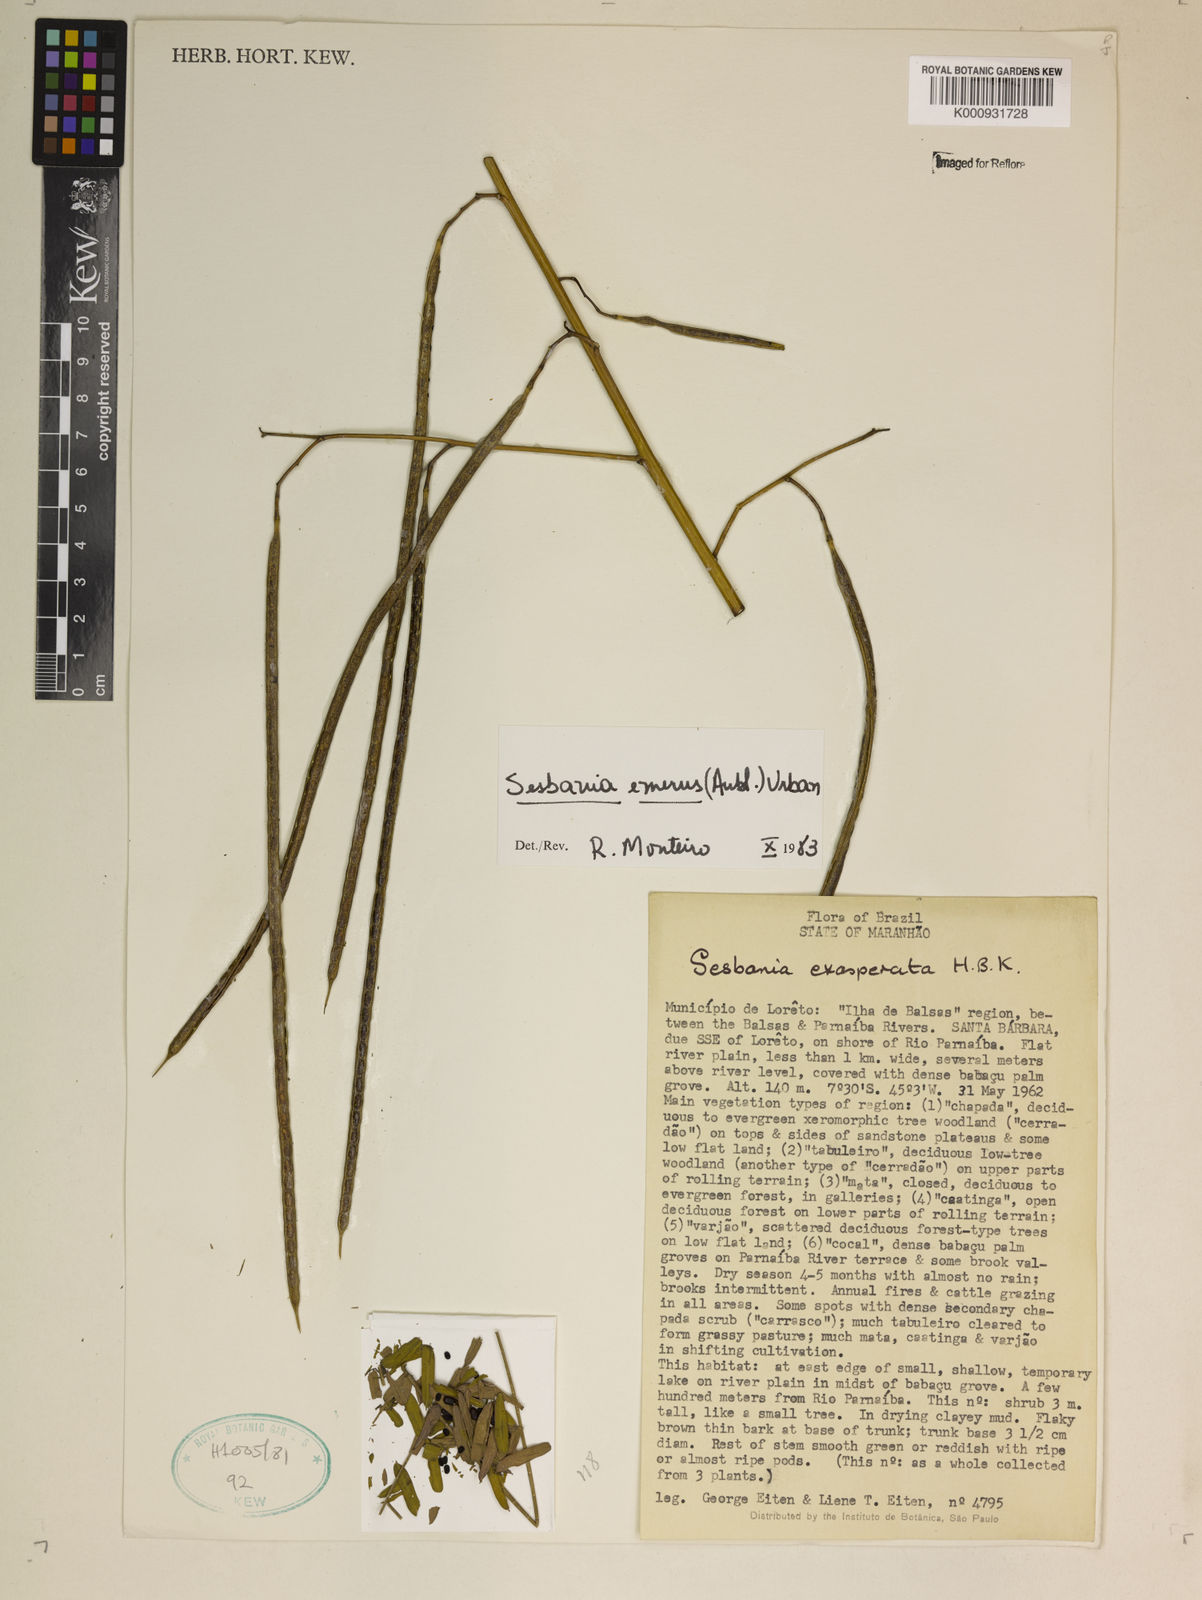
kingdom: Plantae
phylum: Tracheophyta
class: Magnoliopsida
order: Fabales
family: Fabaceae
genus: Sesbania
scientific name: Sesbania herbacea
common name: Bigpod sesbania
